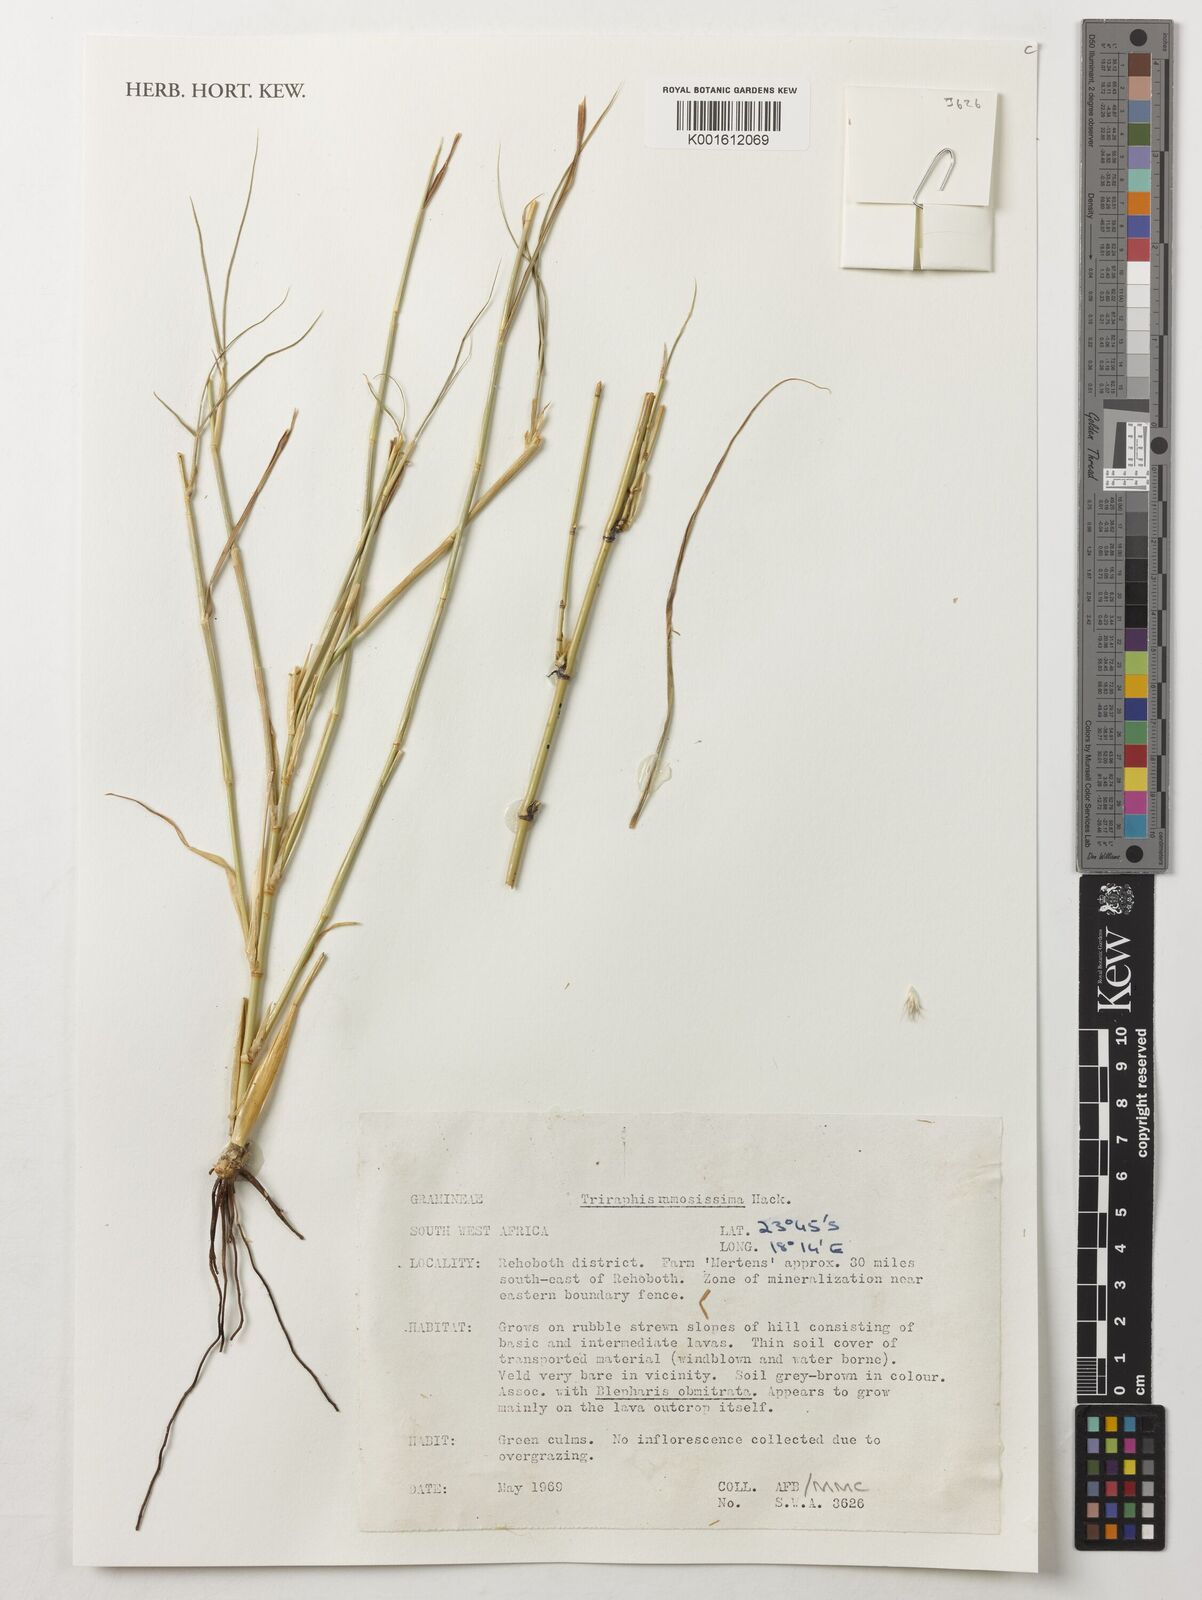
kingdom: Plantae
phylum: Tracheophyta
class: Liliopsida
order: Poales
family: Poaceae
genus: Triraphis
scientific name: Triraphis ramosissima
